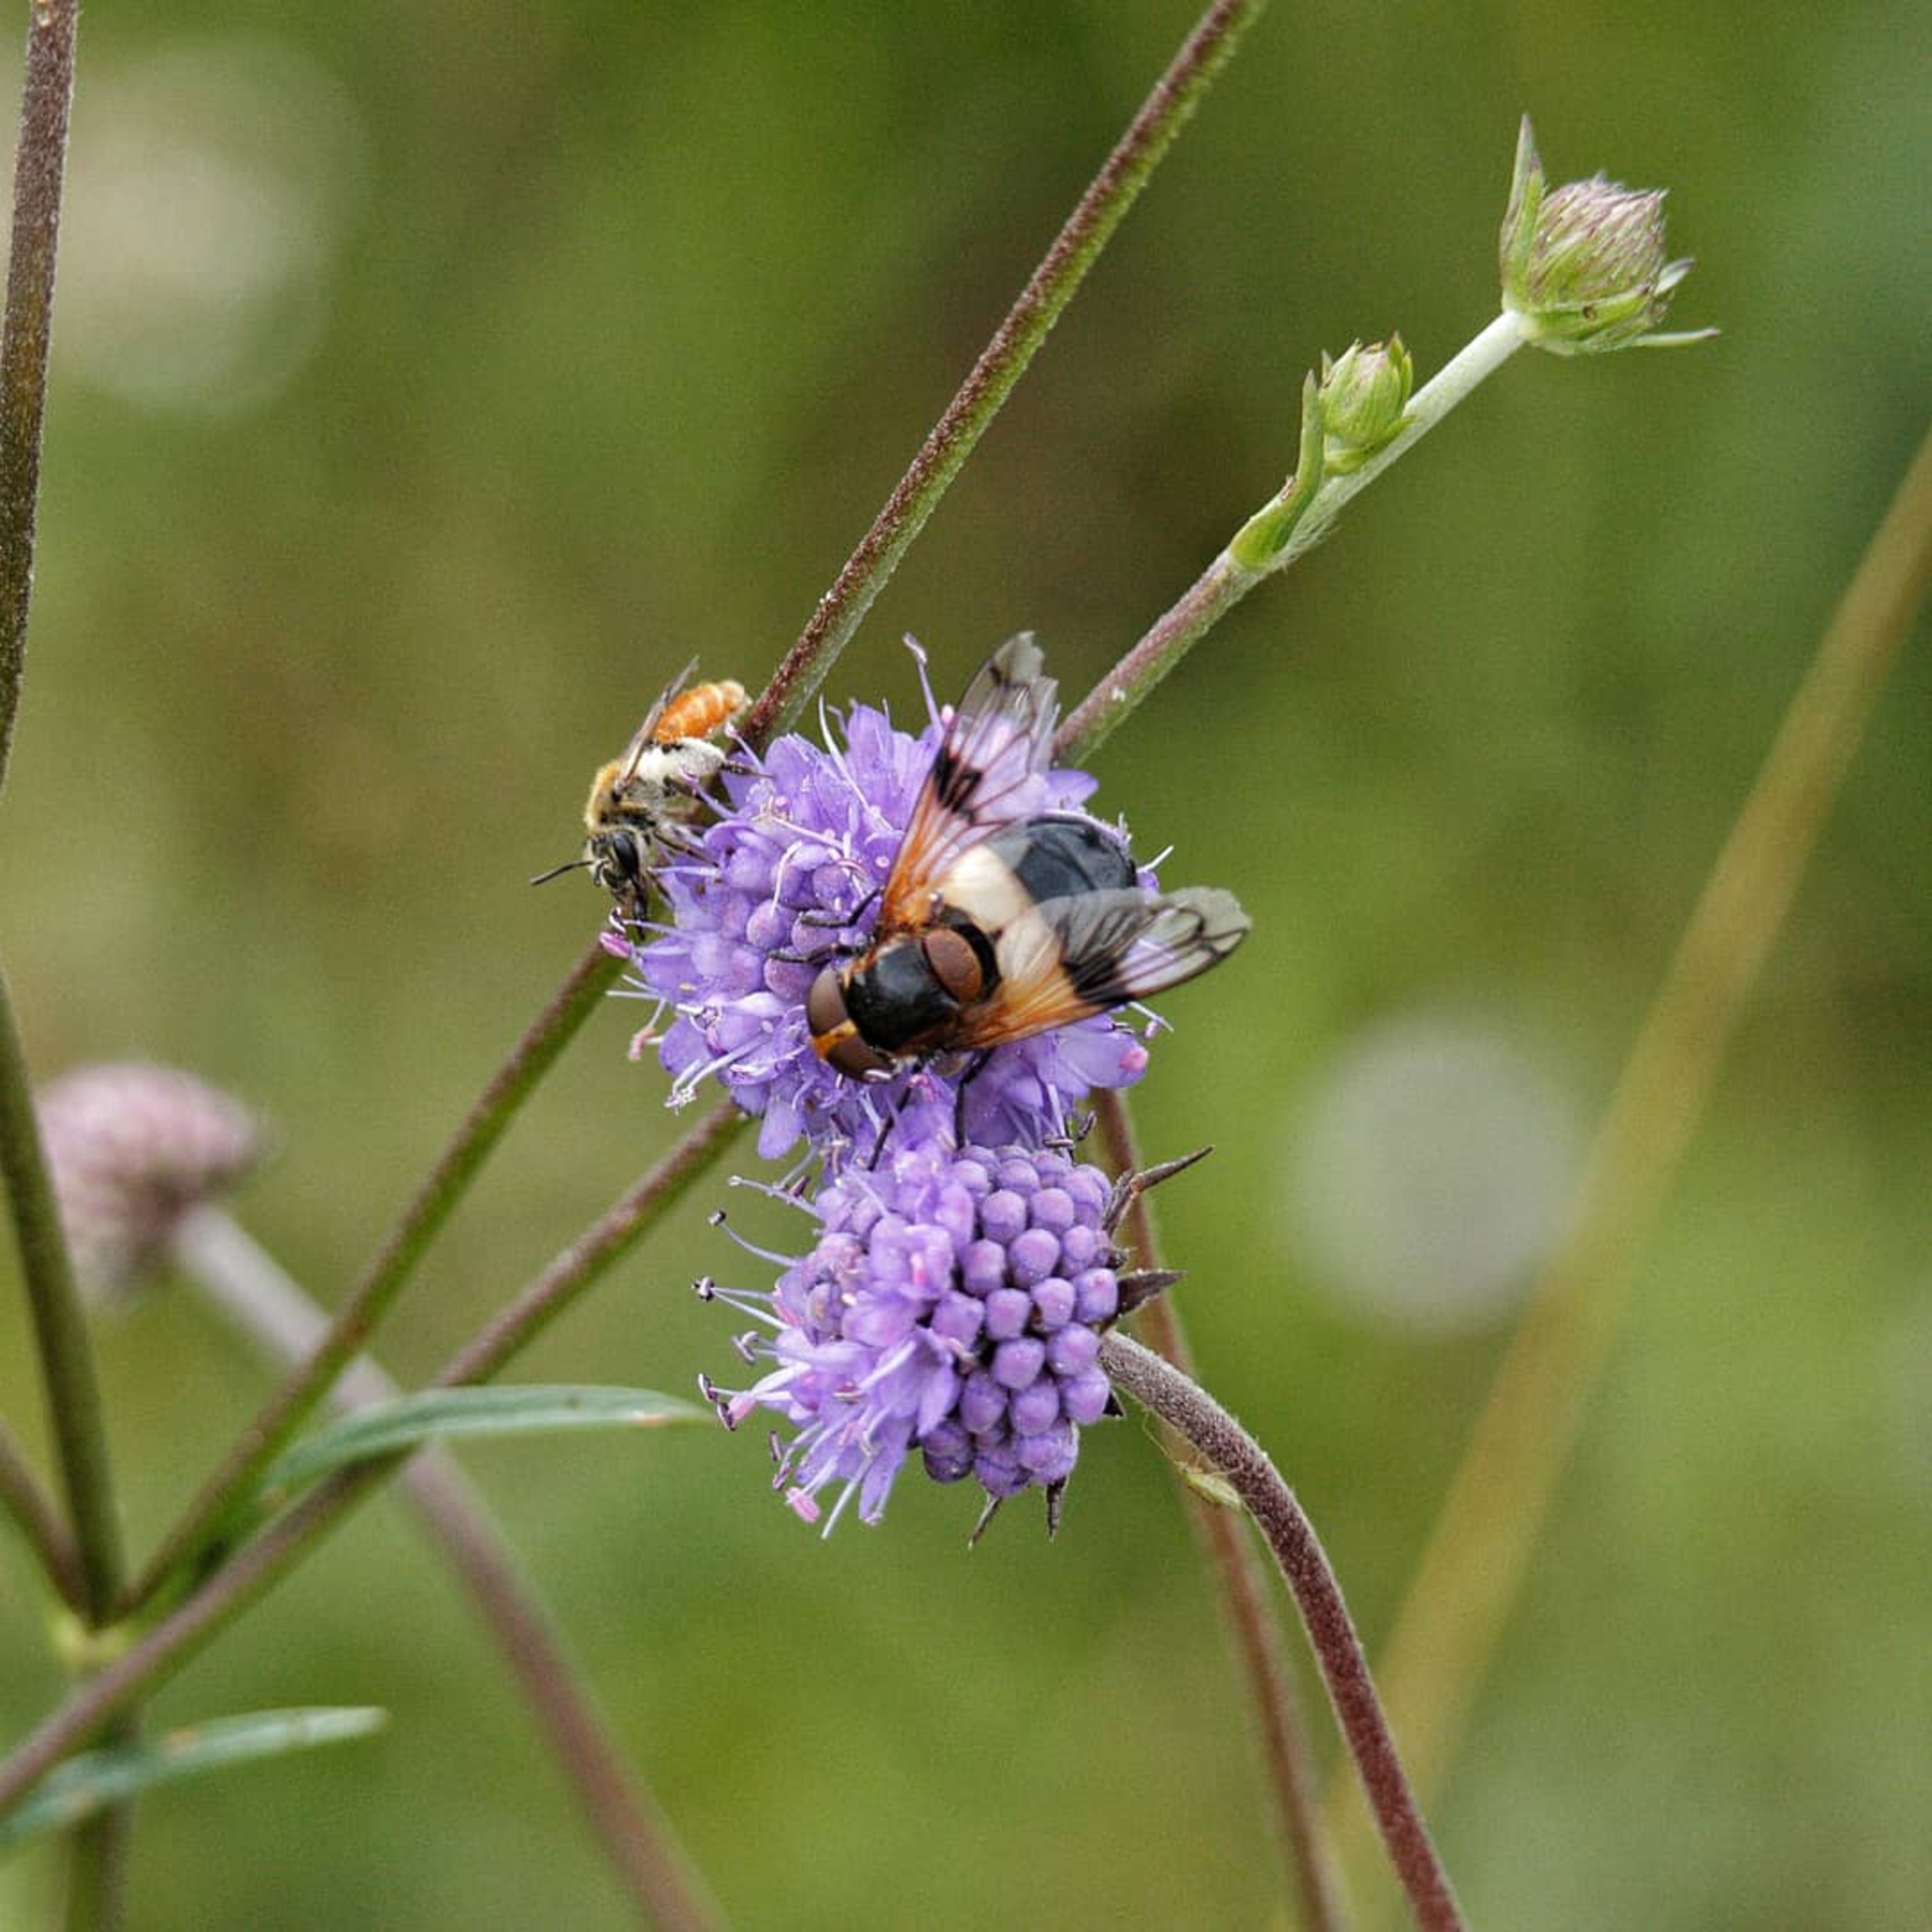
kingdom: Animalia
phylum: Arthropoda
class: Insecta
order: Diptera
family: Syrphidae
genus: Volucella
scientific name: Volucella pellucens
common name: Hvidbåndet humlesvirreflue
